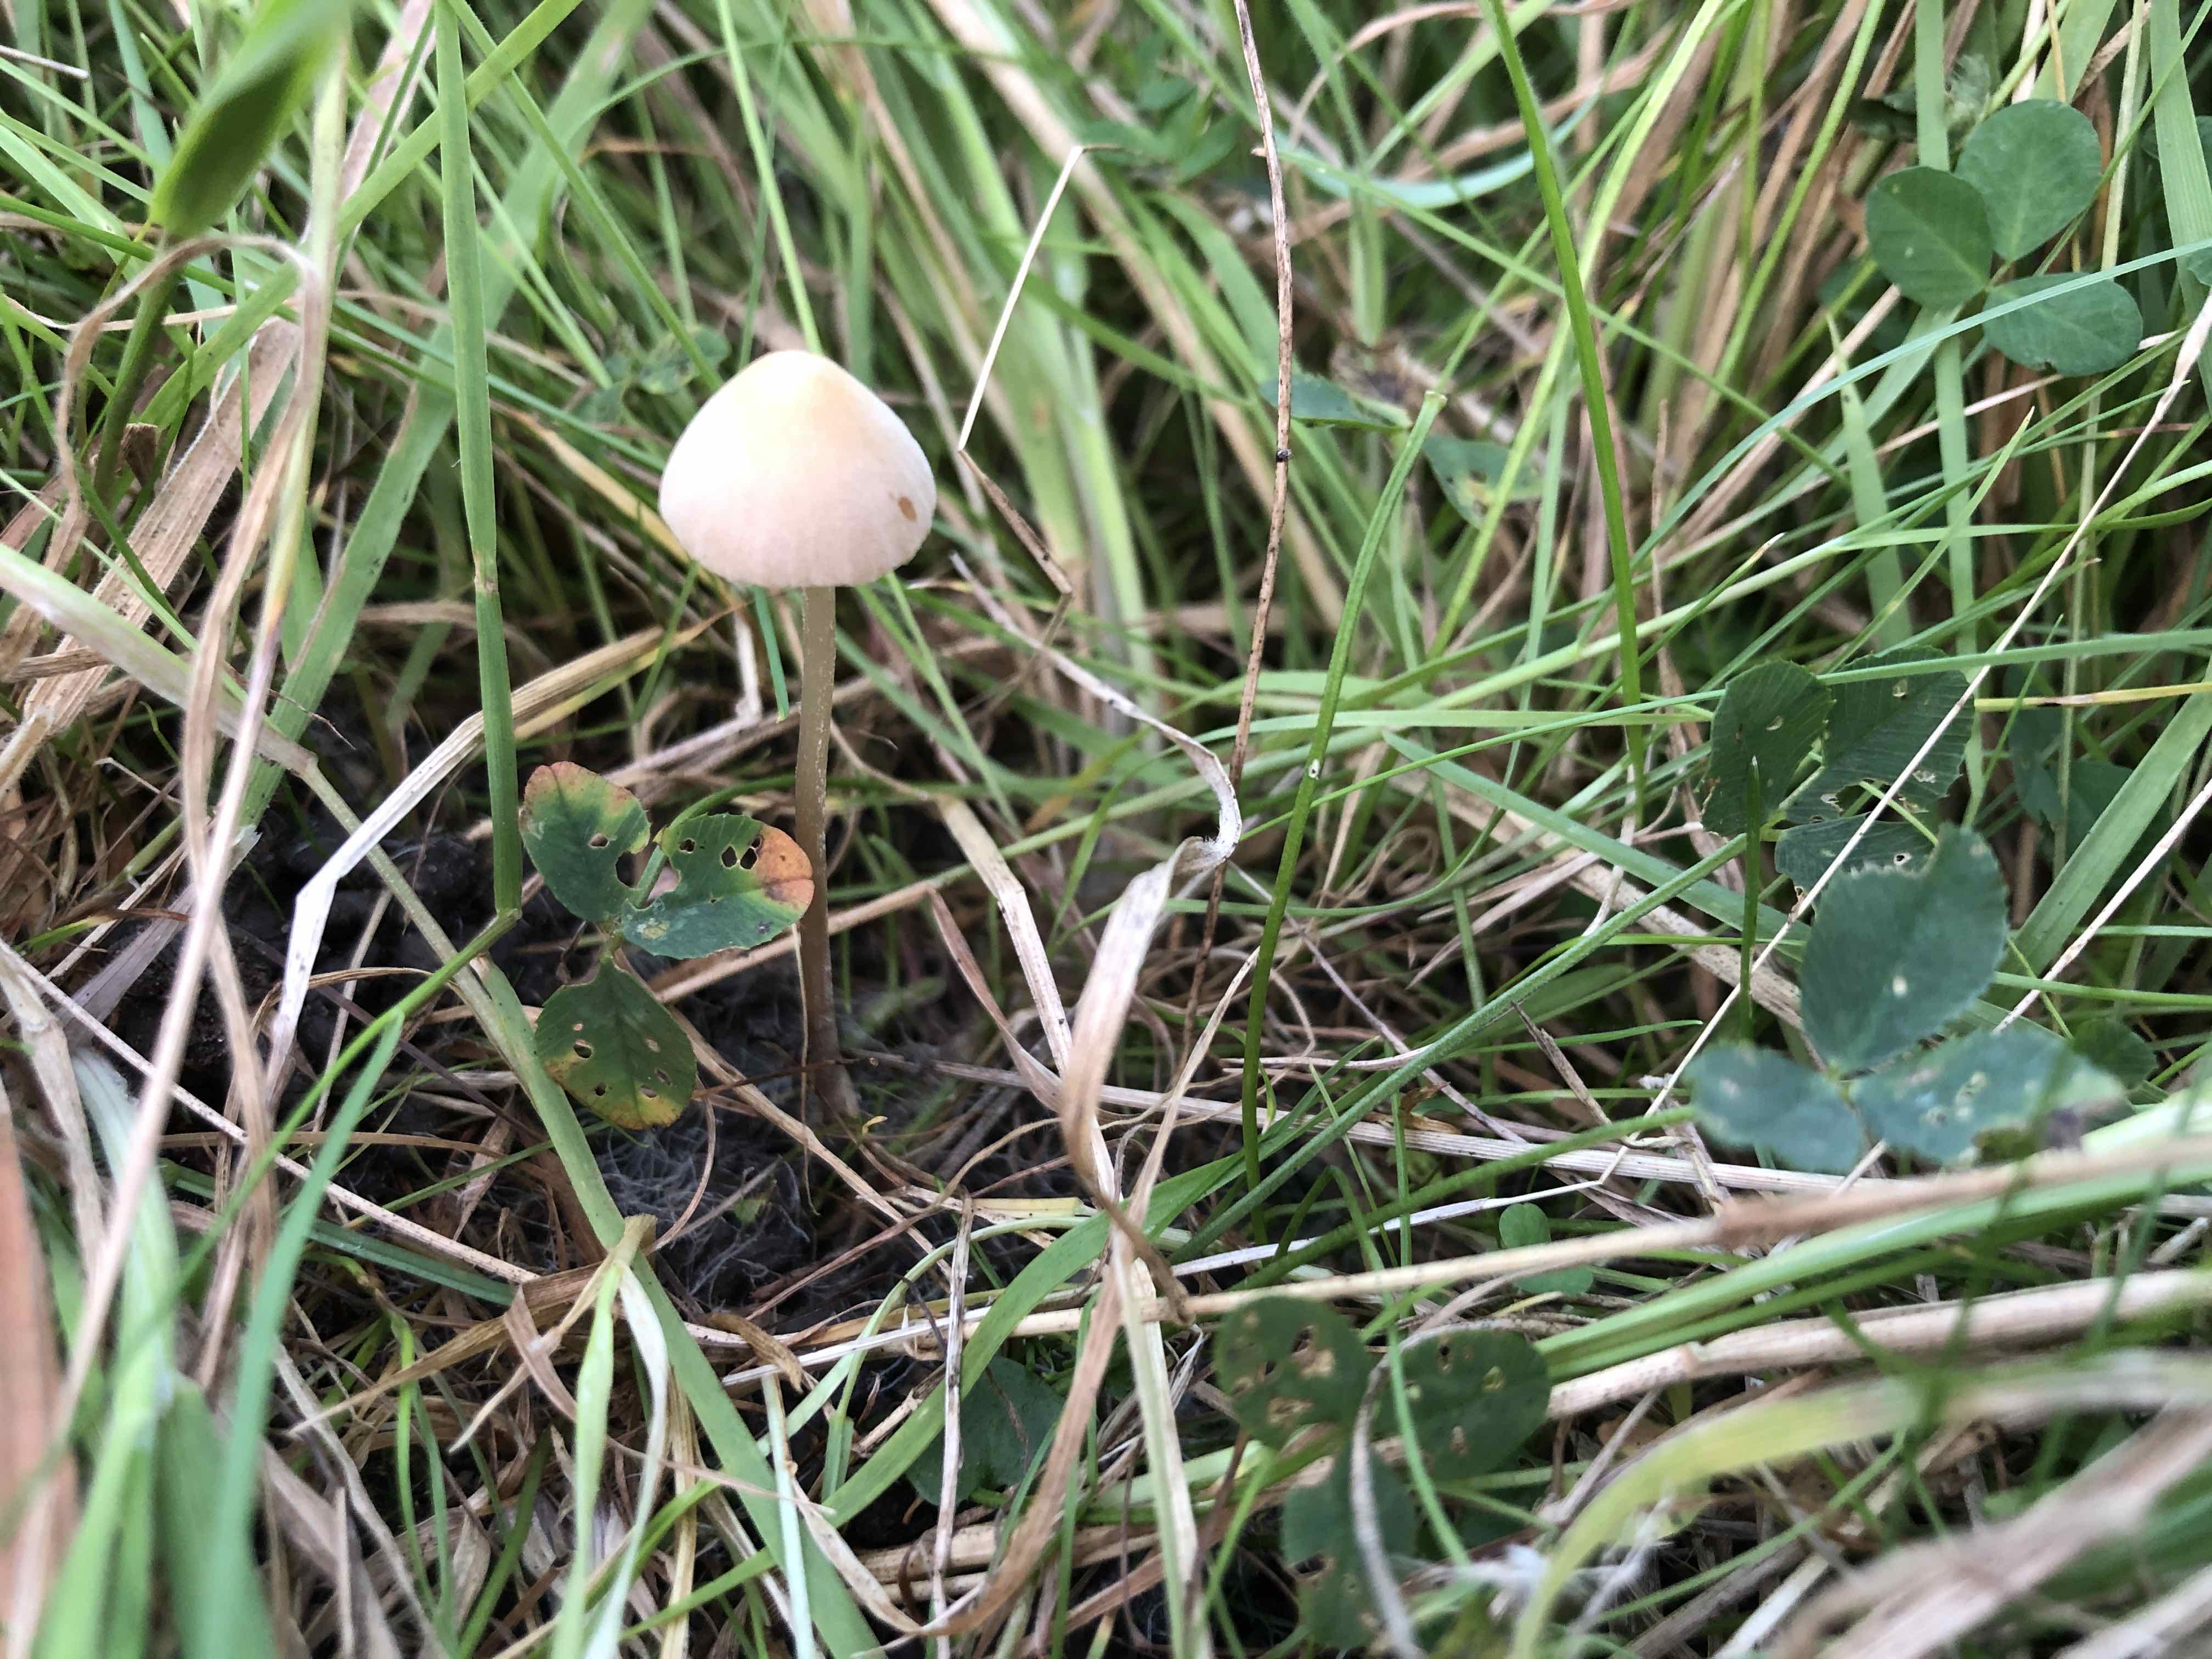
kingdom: Fungi
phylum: Basidiomycota
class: Agaricomycetes
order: Agaricales
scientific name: Agaricales
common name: champignonordenen
